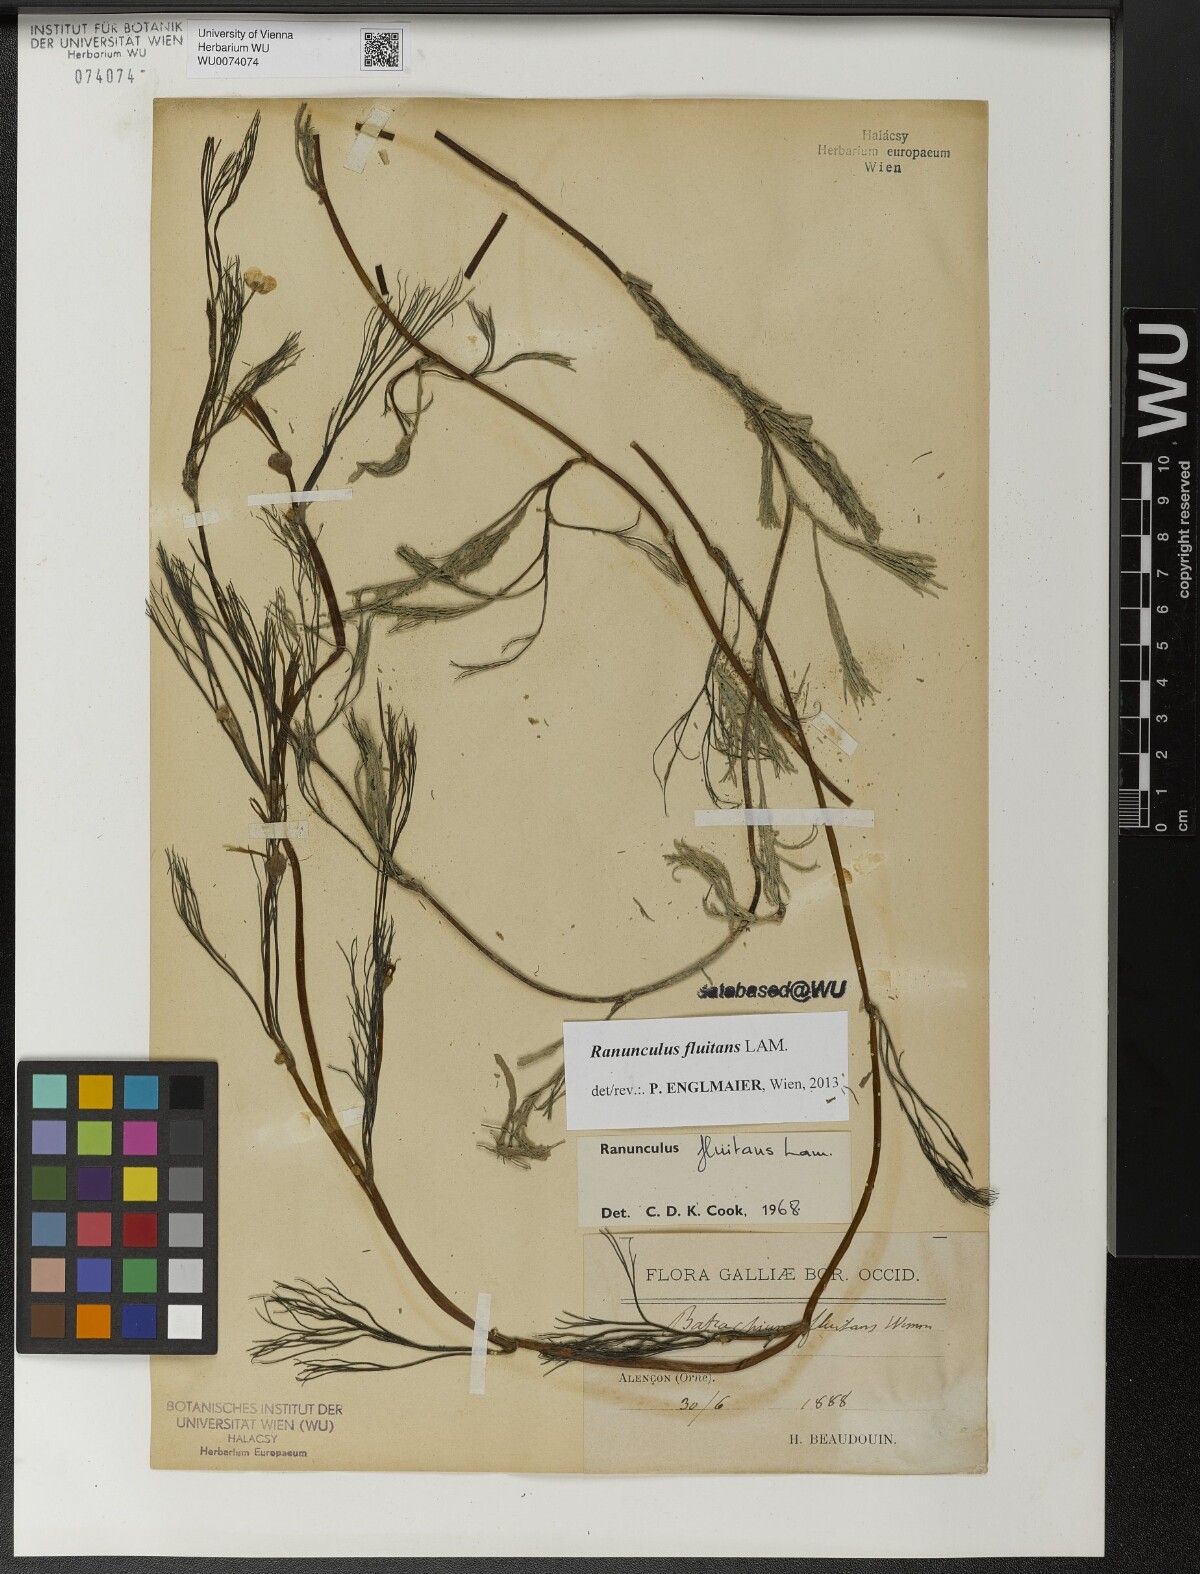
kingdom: Plantae
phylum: Tracheophyta
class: Magnoliopsida
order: Ranunculales
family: Ranunculaceae
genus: Ranunculus
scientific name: Ranunculus fluitans
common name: River water-crowfoot
